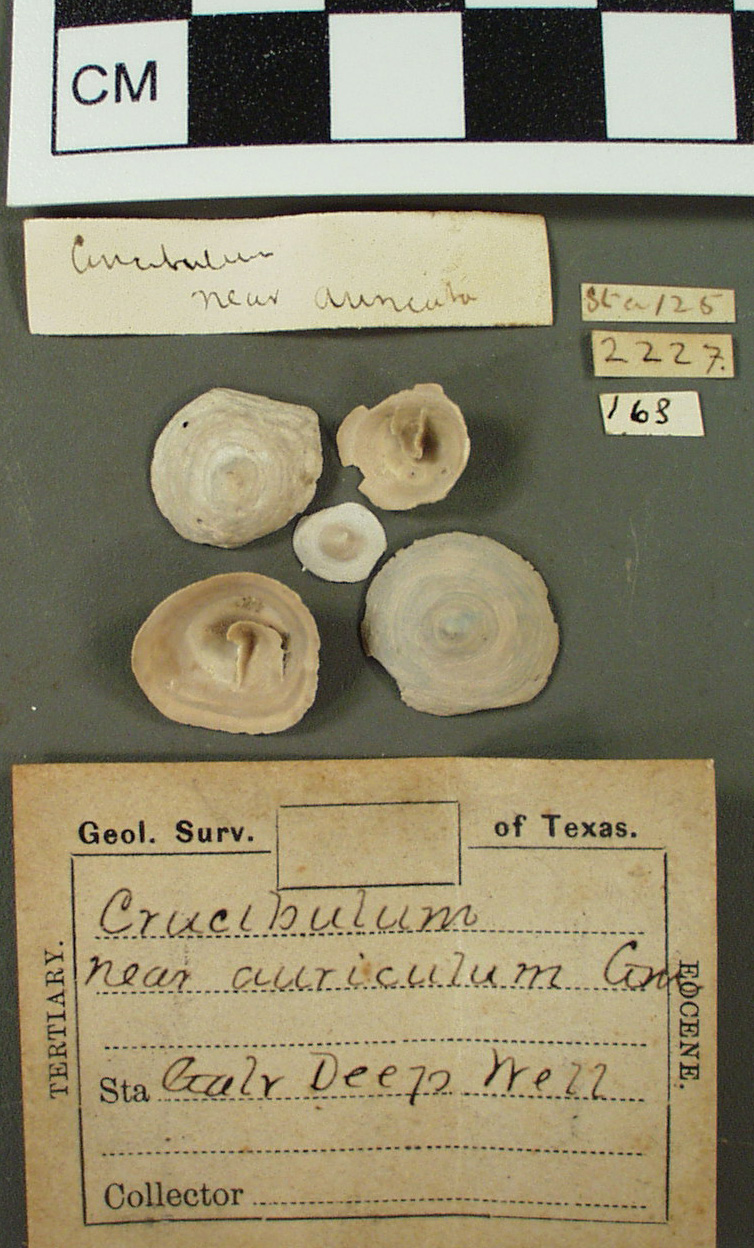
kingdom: Animalia
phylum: Mollusca
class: Gastropoda
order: Littorinimorpha
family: Calyptraeidae
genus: Crucibulum
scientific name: Crucibulum auricula
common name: West indian cup-and-saucer
